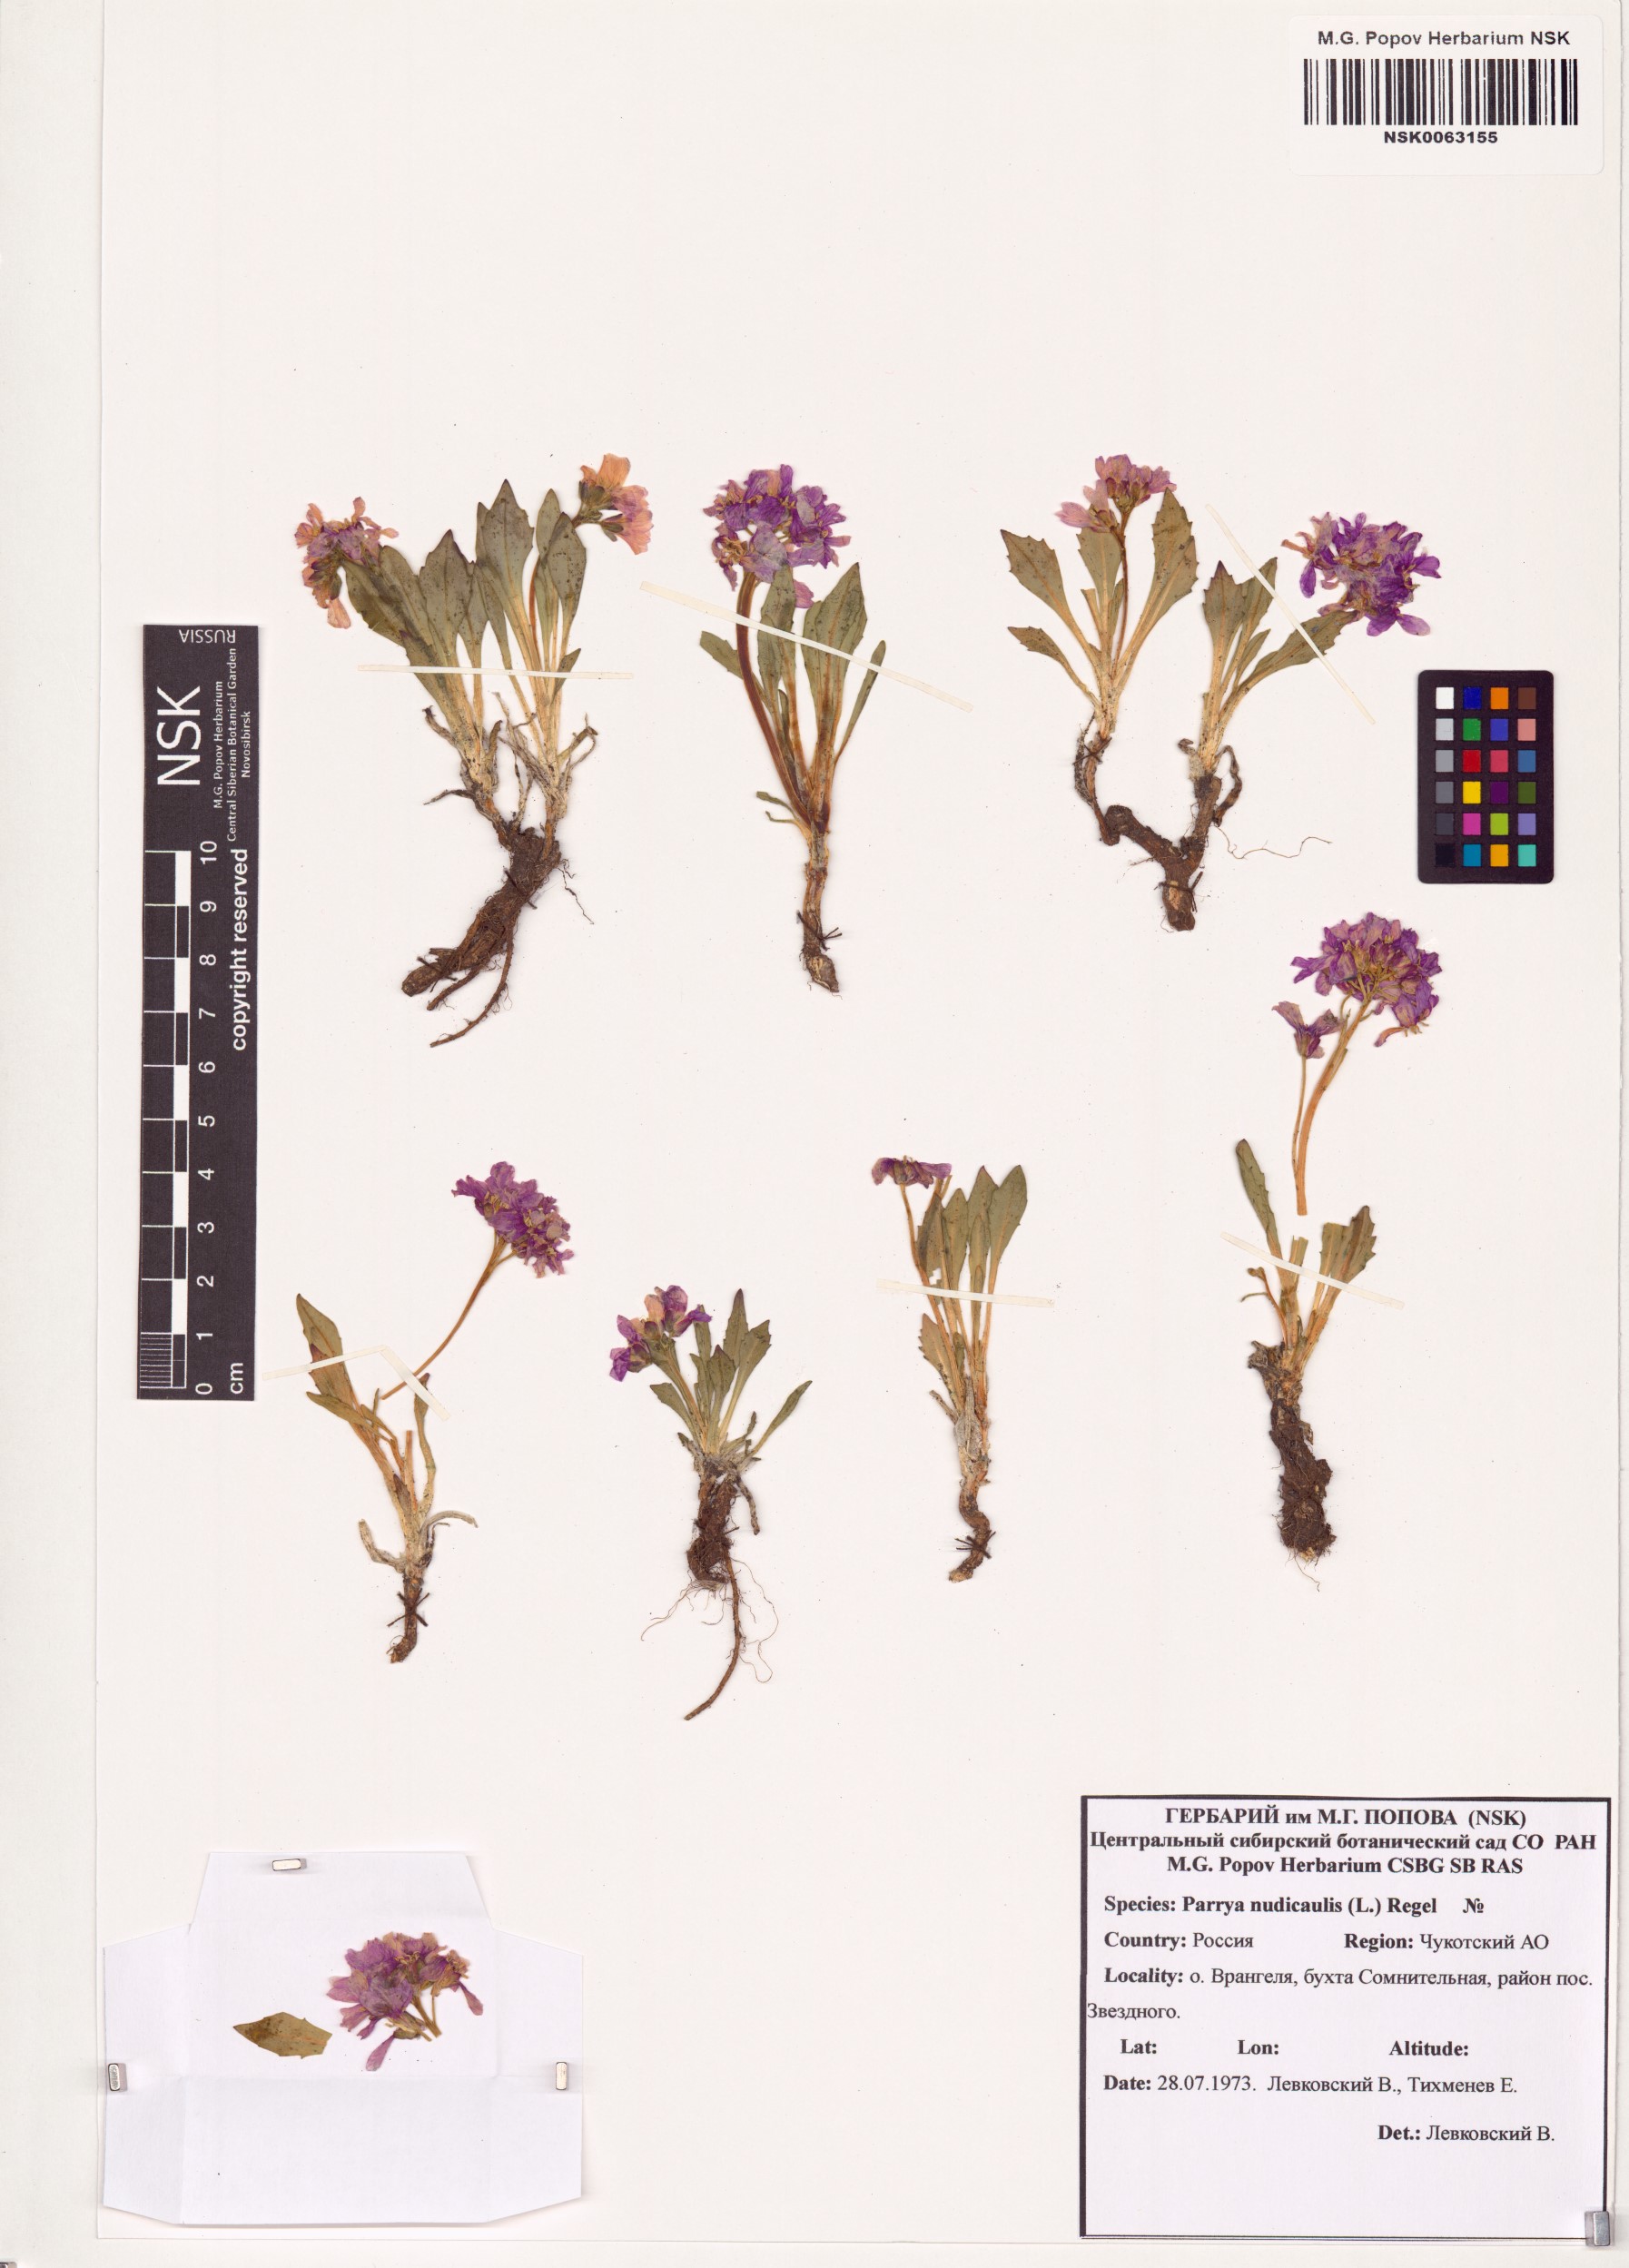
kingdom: Plantae
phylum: Tracheophyta
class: Magnoliopsida
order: Brassicales
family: Brassicaceae
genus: Parrya
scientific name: Parrya nudicaulis
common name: Naked-stemmed false wallflower
